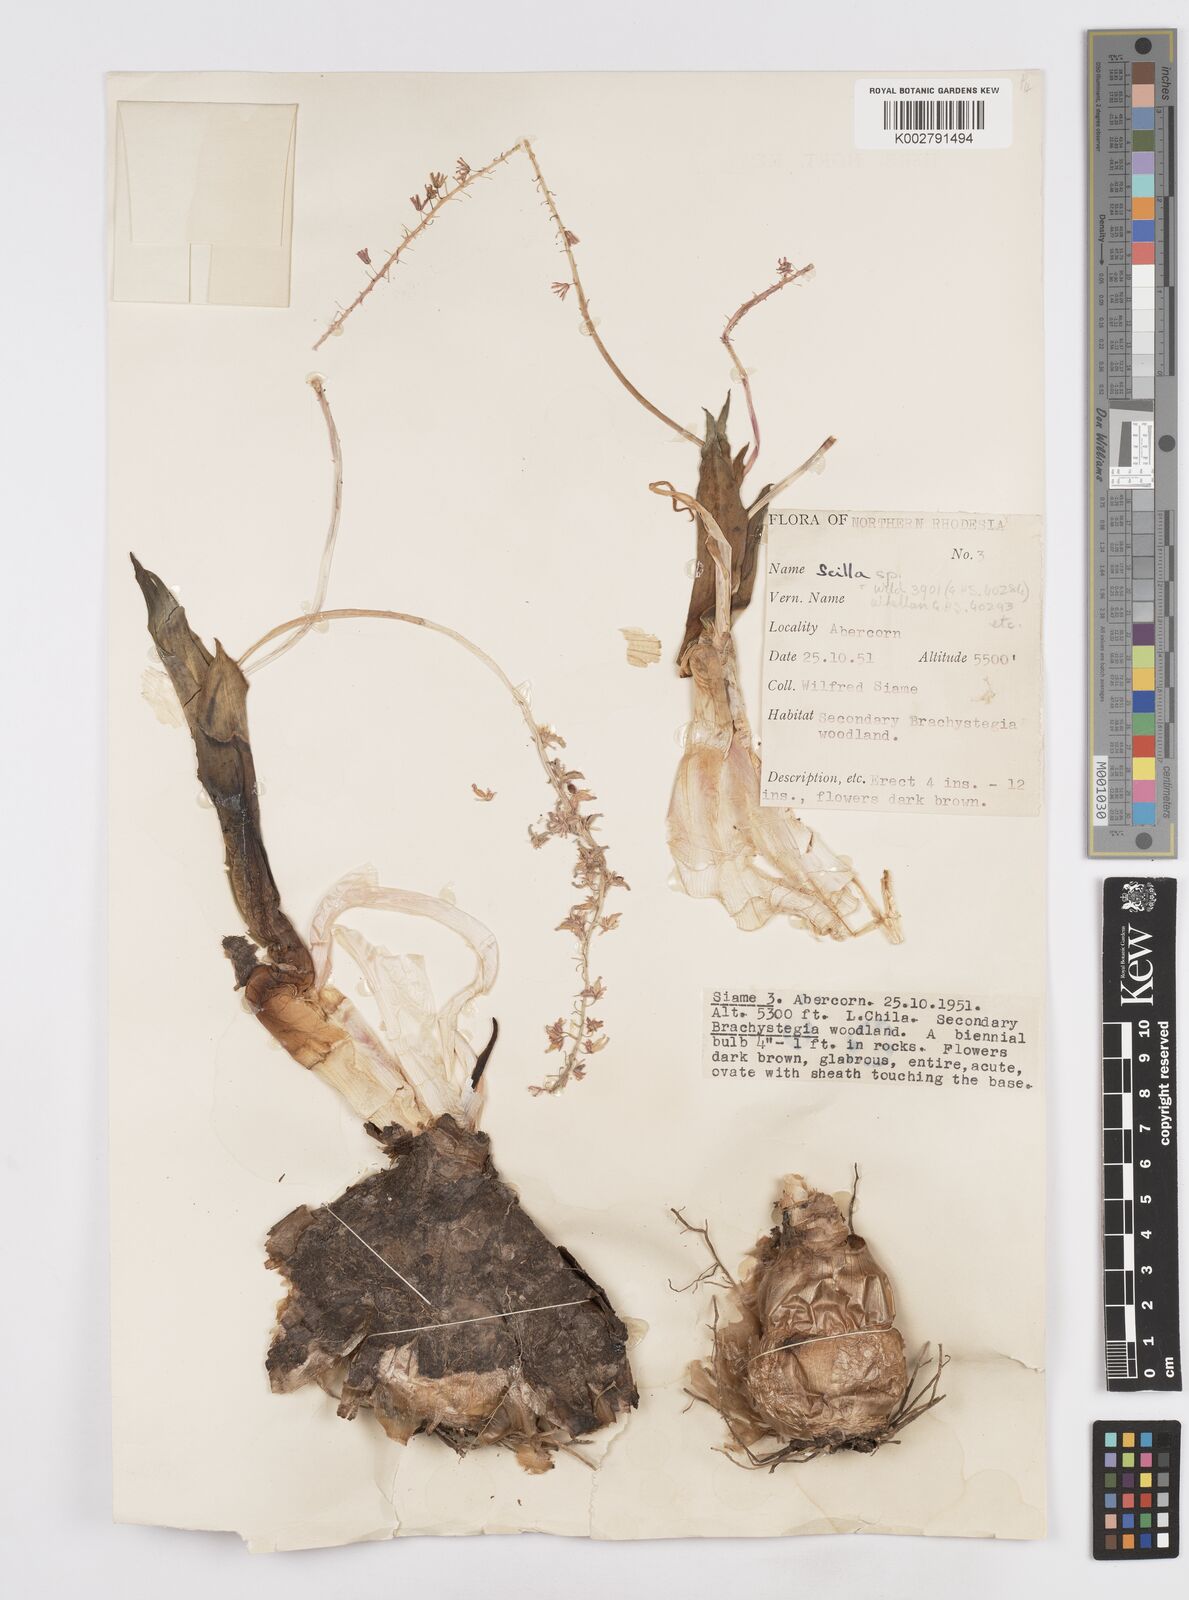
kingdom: Plantae
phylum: Tracheophyta
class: Liliopsida
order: Asparagales
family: Asparagaceae
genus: Scilla
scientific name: Scilla
